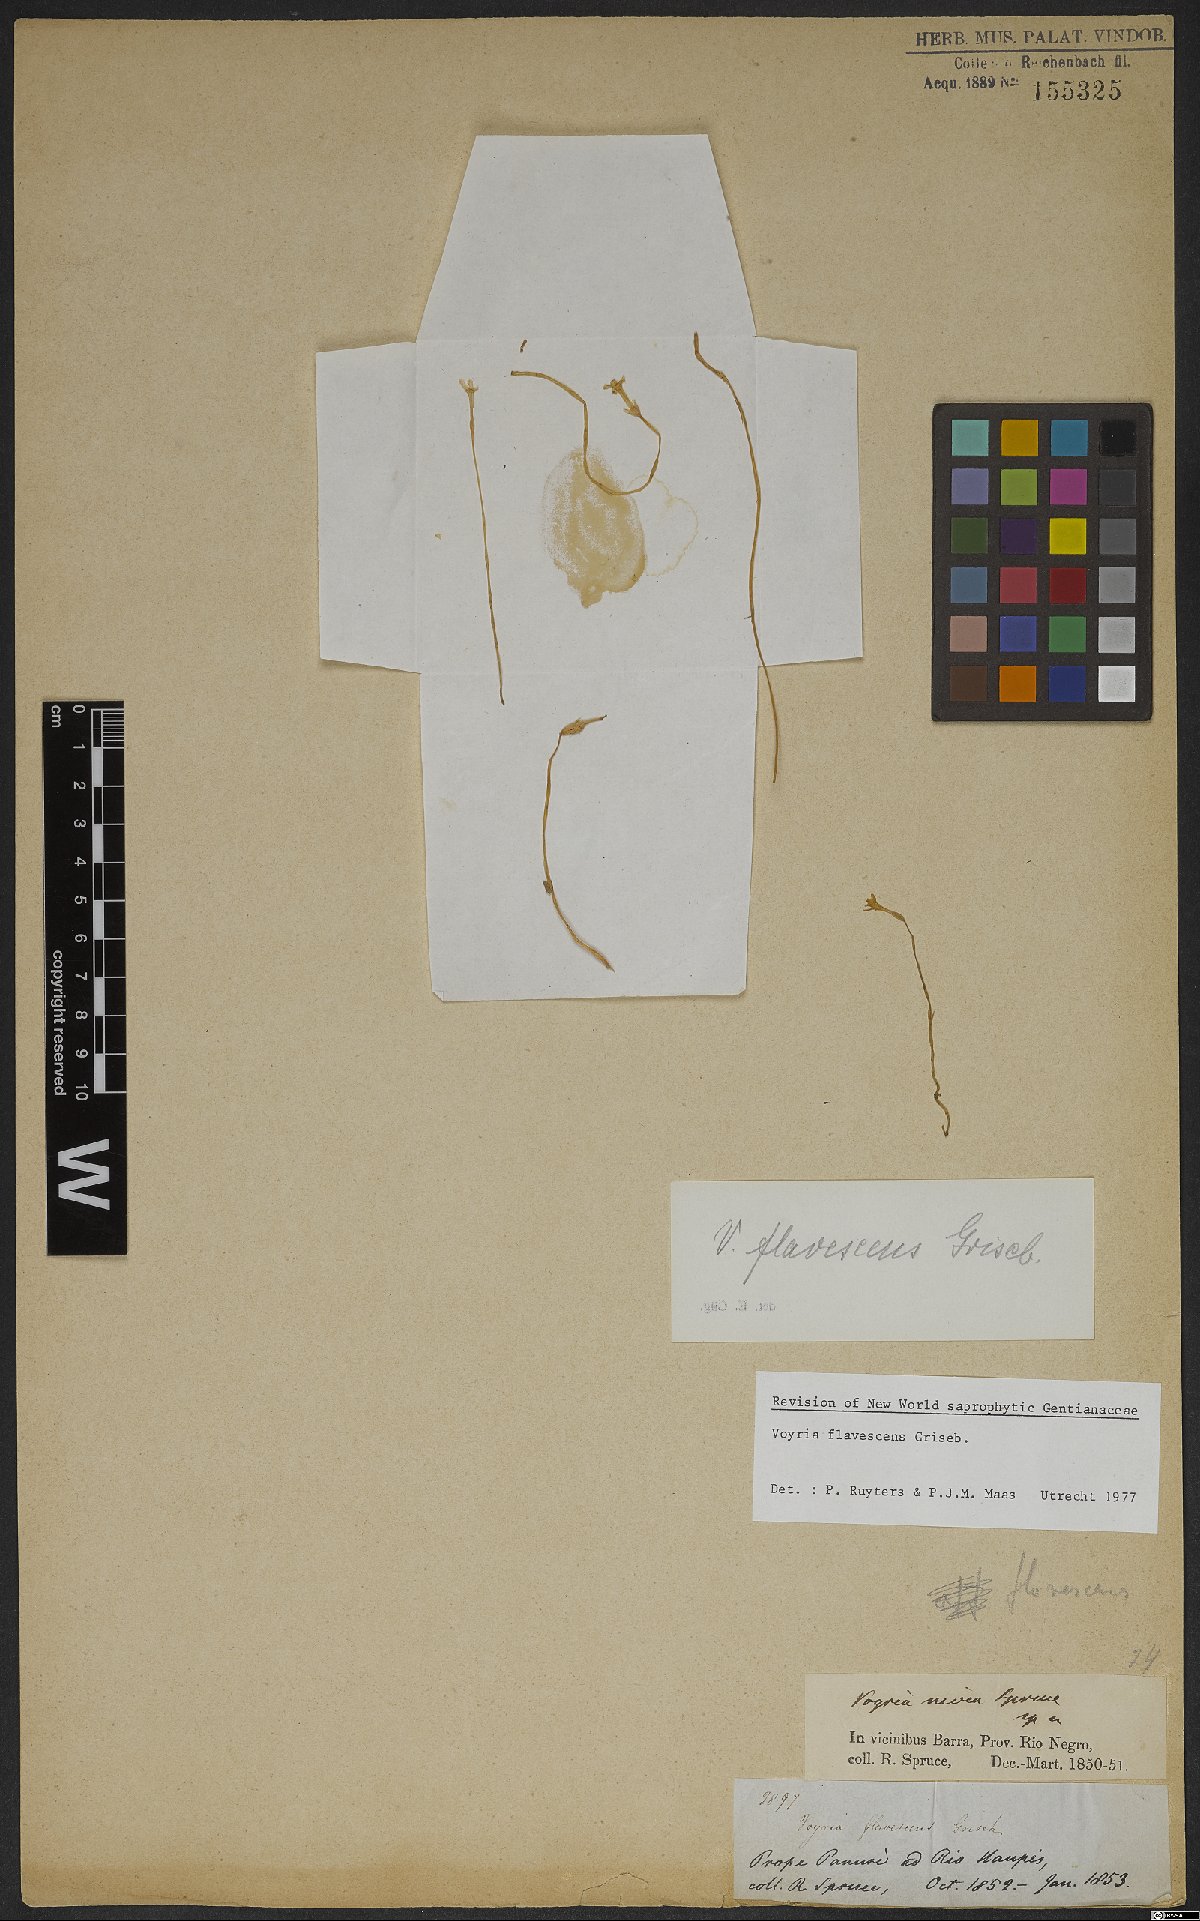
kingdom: Plantae
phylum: Tracheophyta
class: Magnoliopsida
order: Gentianales
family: Gentianaceae
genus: Voyria
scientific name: Voyria flavescens
